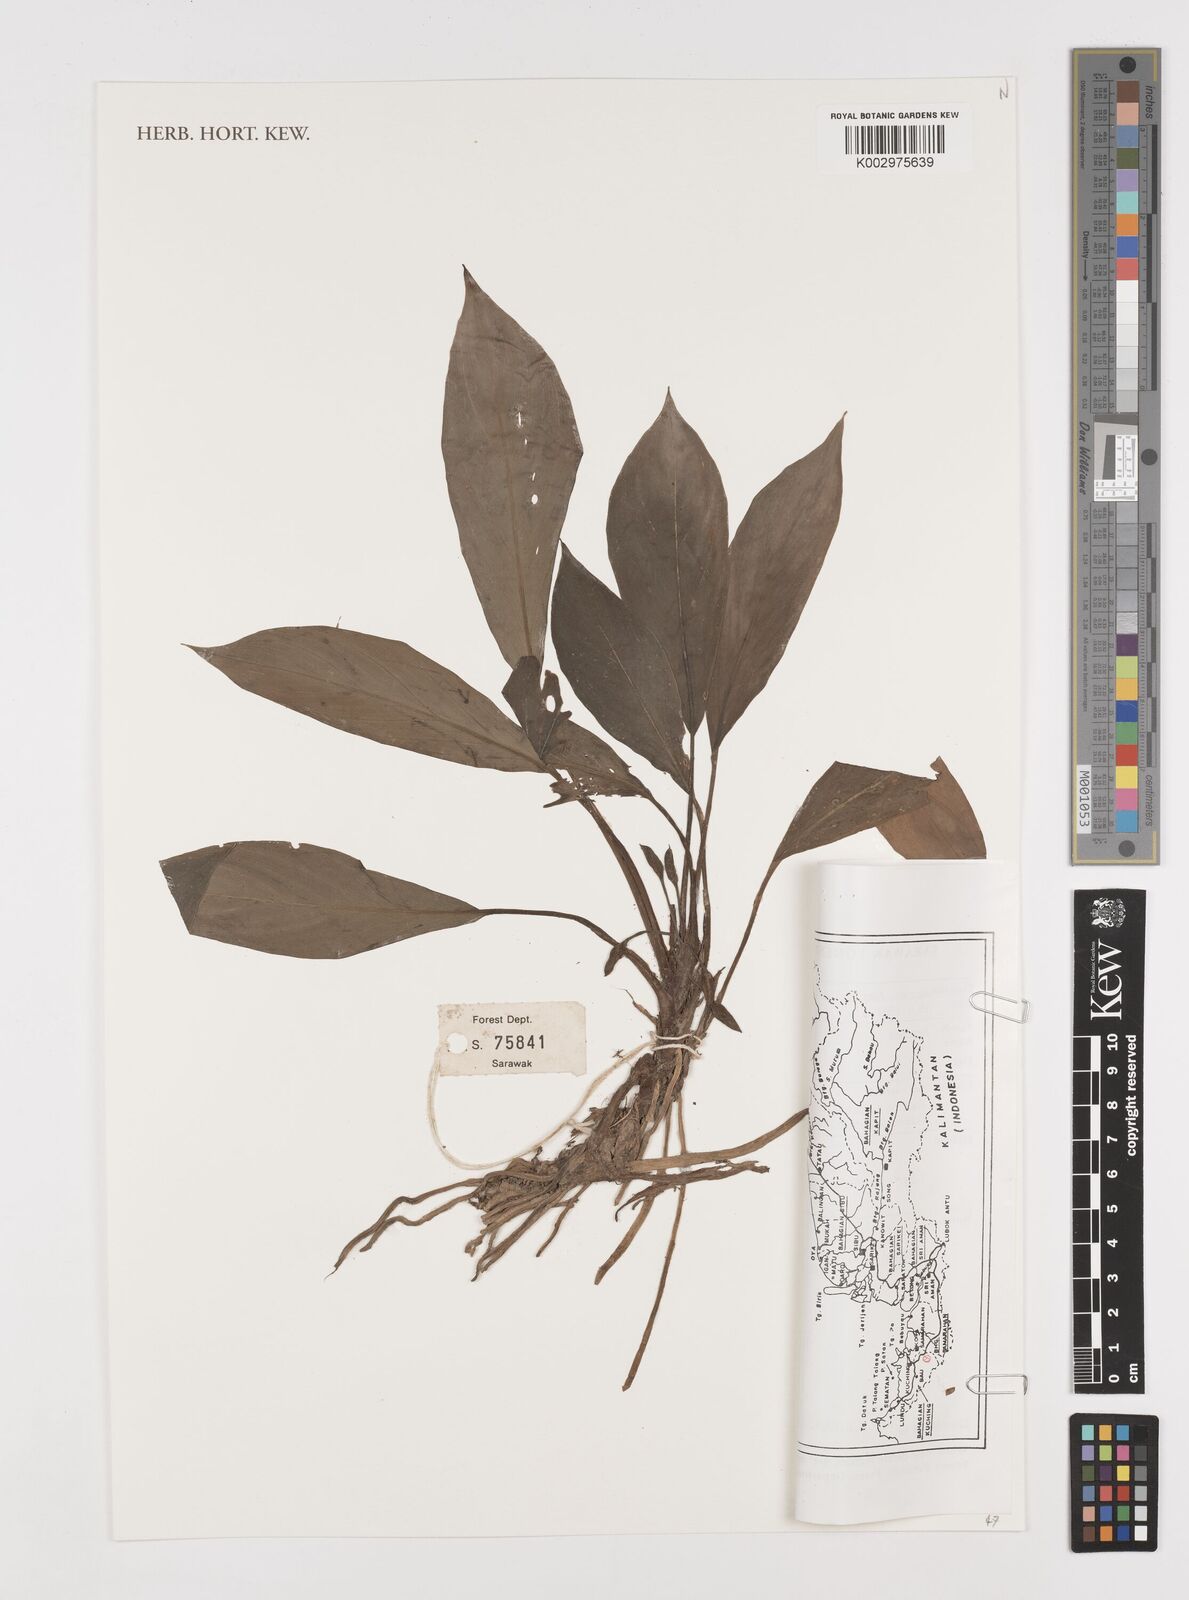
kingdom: Plantae
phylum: Tracheophyta
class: Liliopsida
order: Alismatales
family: Araceae
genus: Homalomena
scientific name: Homalomena
